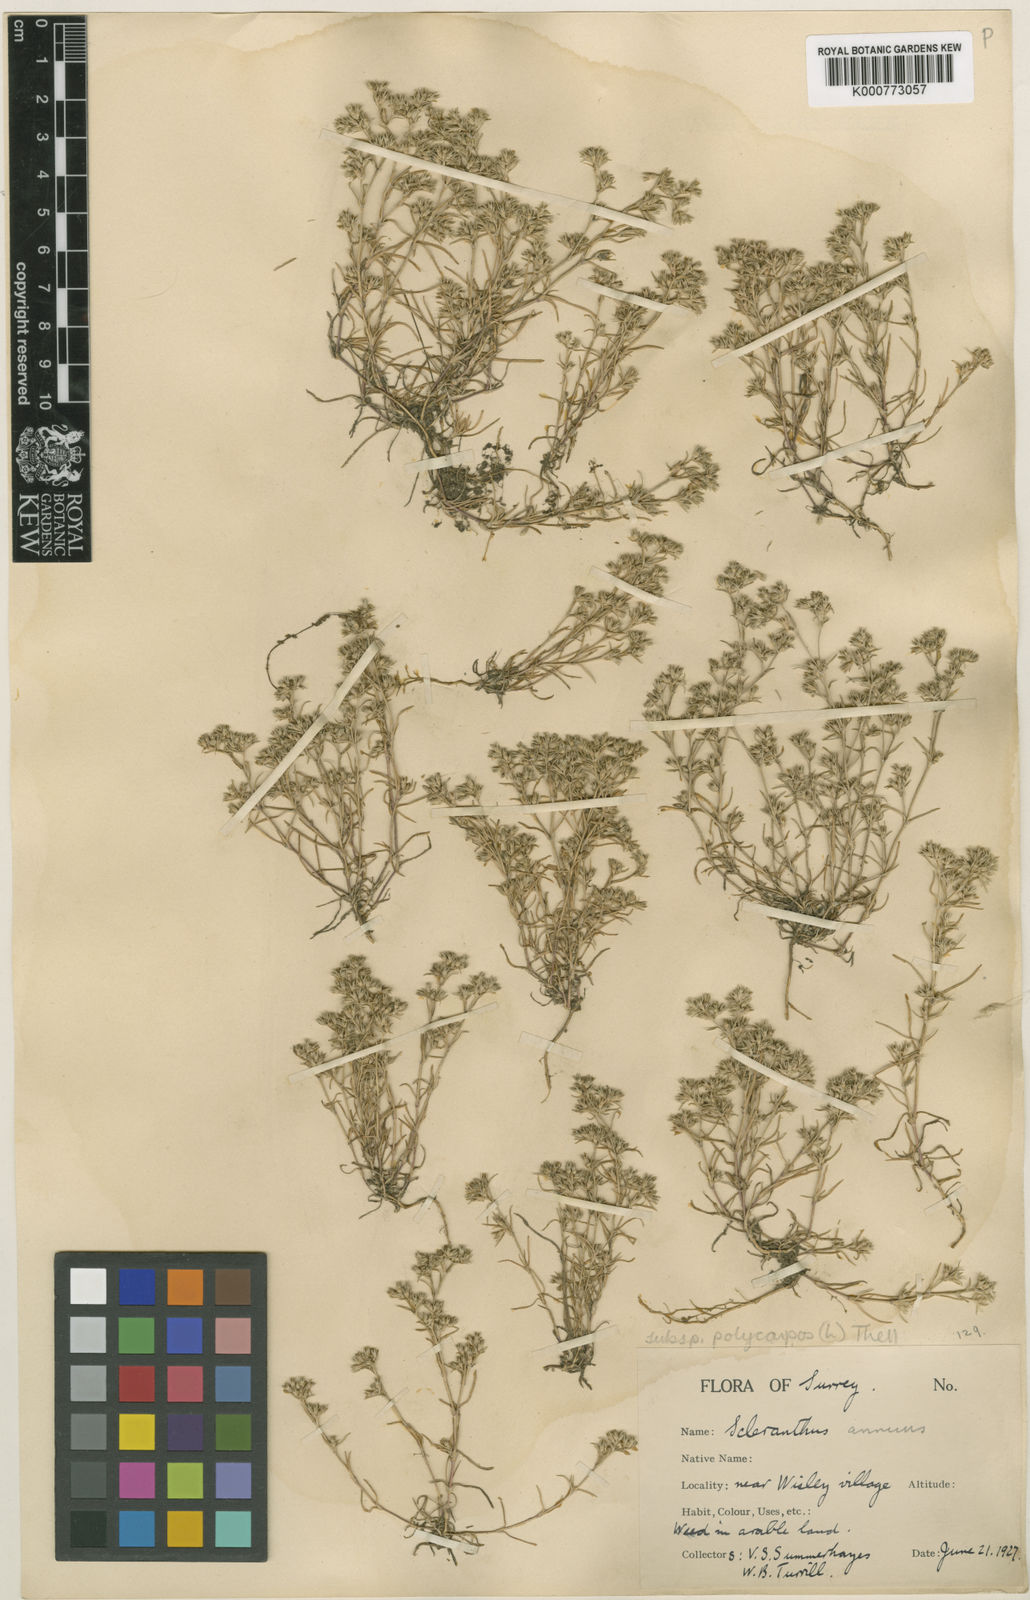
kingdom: Plantae
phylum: Tracheophyta
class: Magnoliopsida
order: Caryophyllales
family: Caryophyllaceae
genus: Scleranthus
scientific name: Scleranthus annuus
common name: Annual knawel
